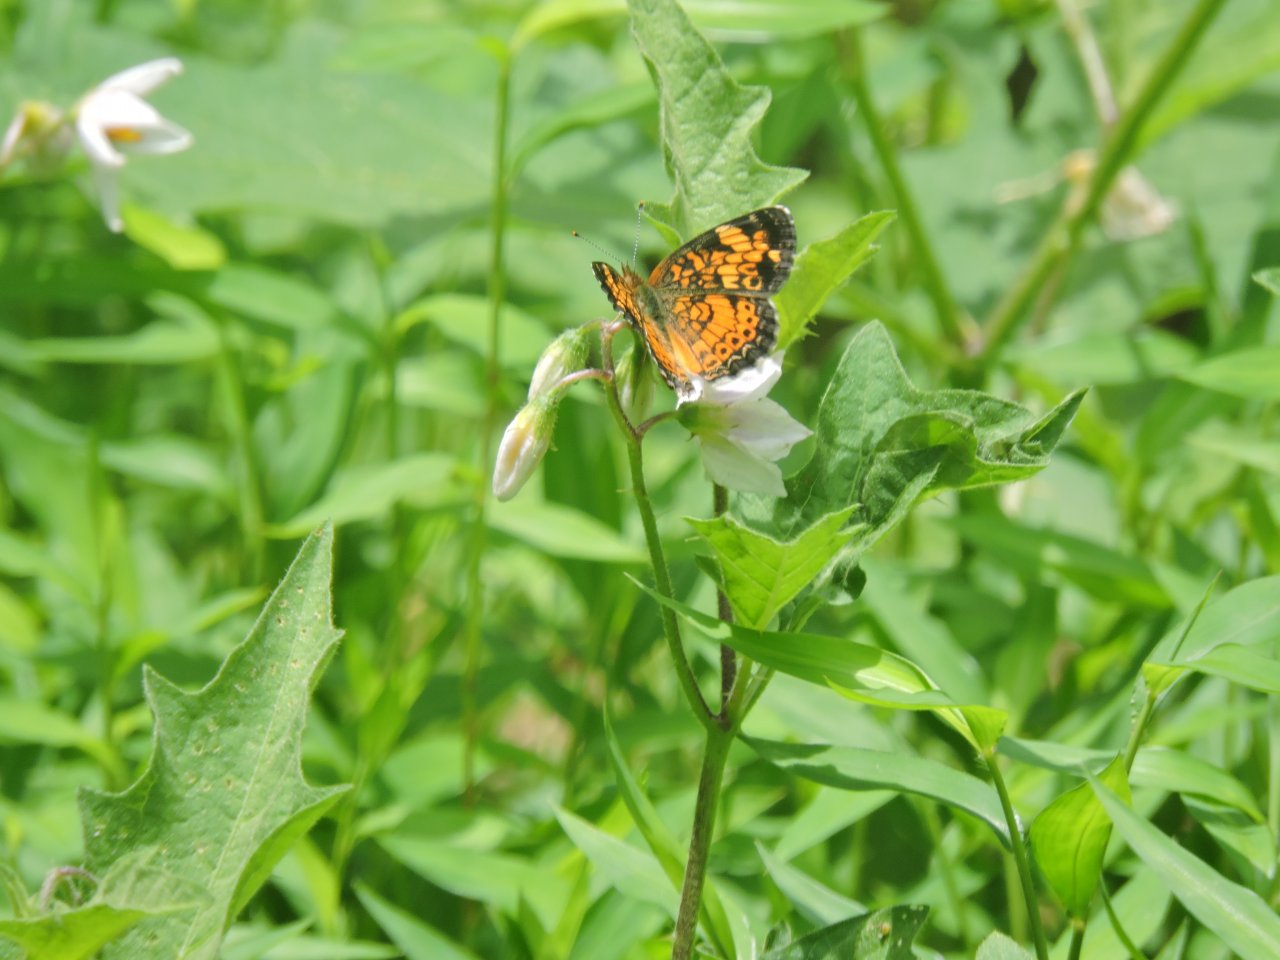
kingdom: Animalia
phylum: Arthropoda
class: Insecta
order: Lepidoptera
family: Nymphalidae
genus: Phyciodes
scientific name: Phyciodes tharos
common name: Pearl Crescent
